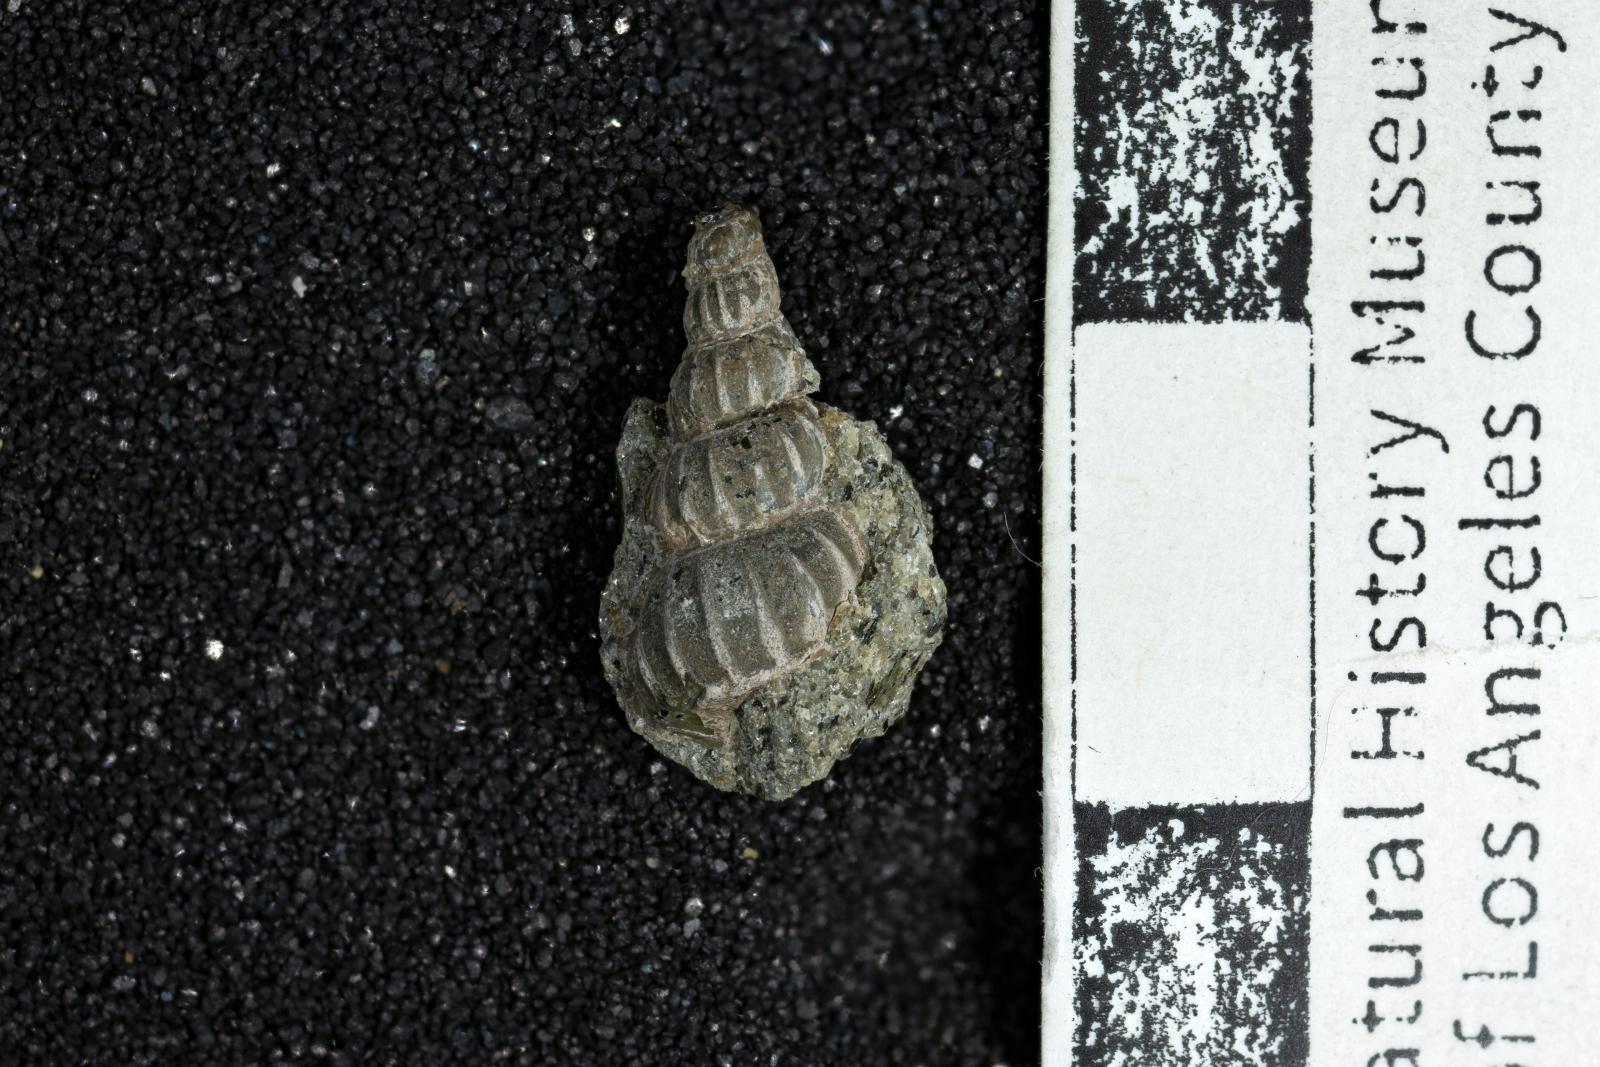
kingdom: Animalia
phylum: Mollusca
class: Gastropoda
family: Epitoniidae
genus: Opalia
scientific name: Opalia cavea
